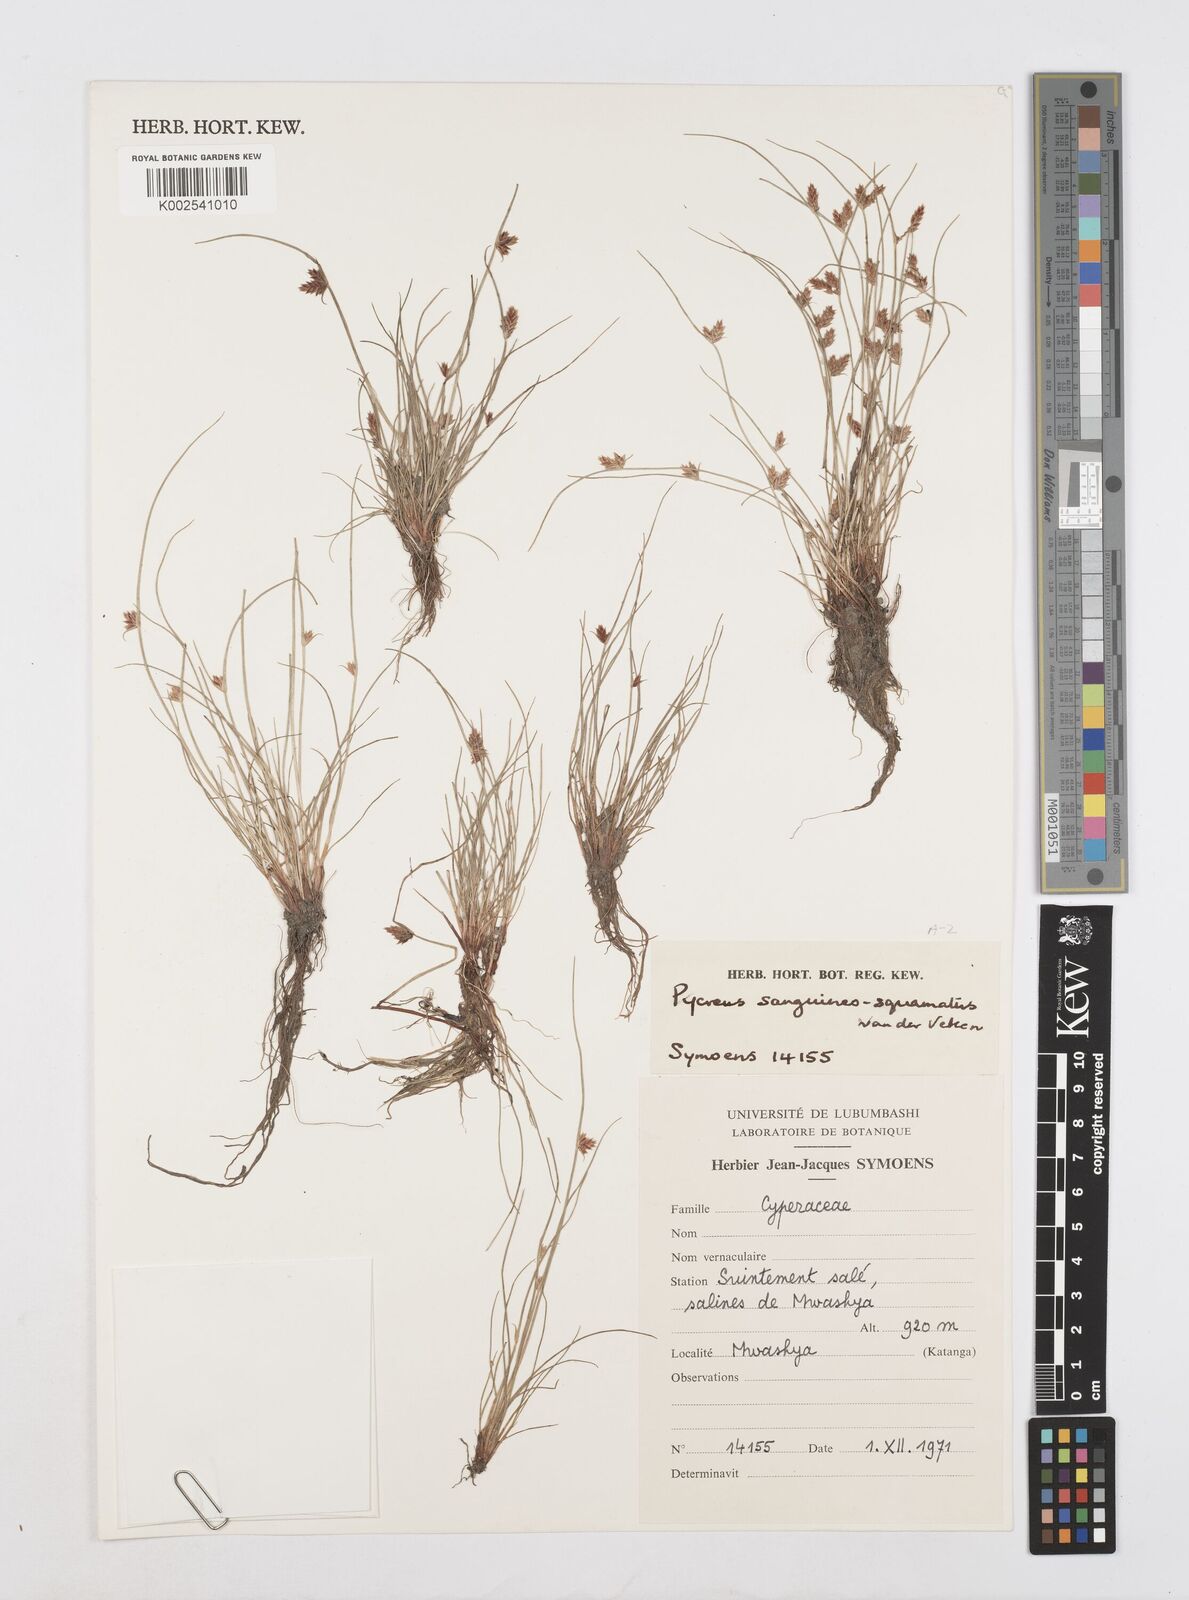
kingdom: Plantae
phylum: Tracheophyta
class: Liliopsida
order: Poales
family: Cyperaceae
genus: Cyperus
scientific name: Cyperus
